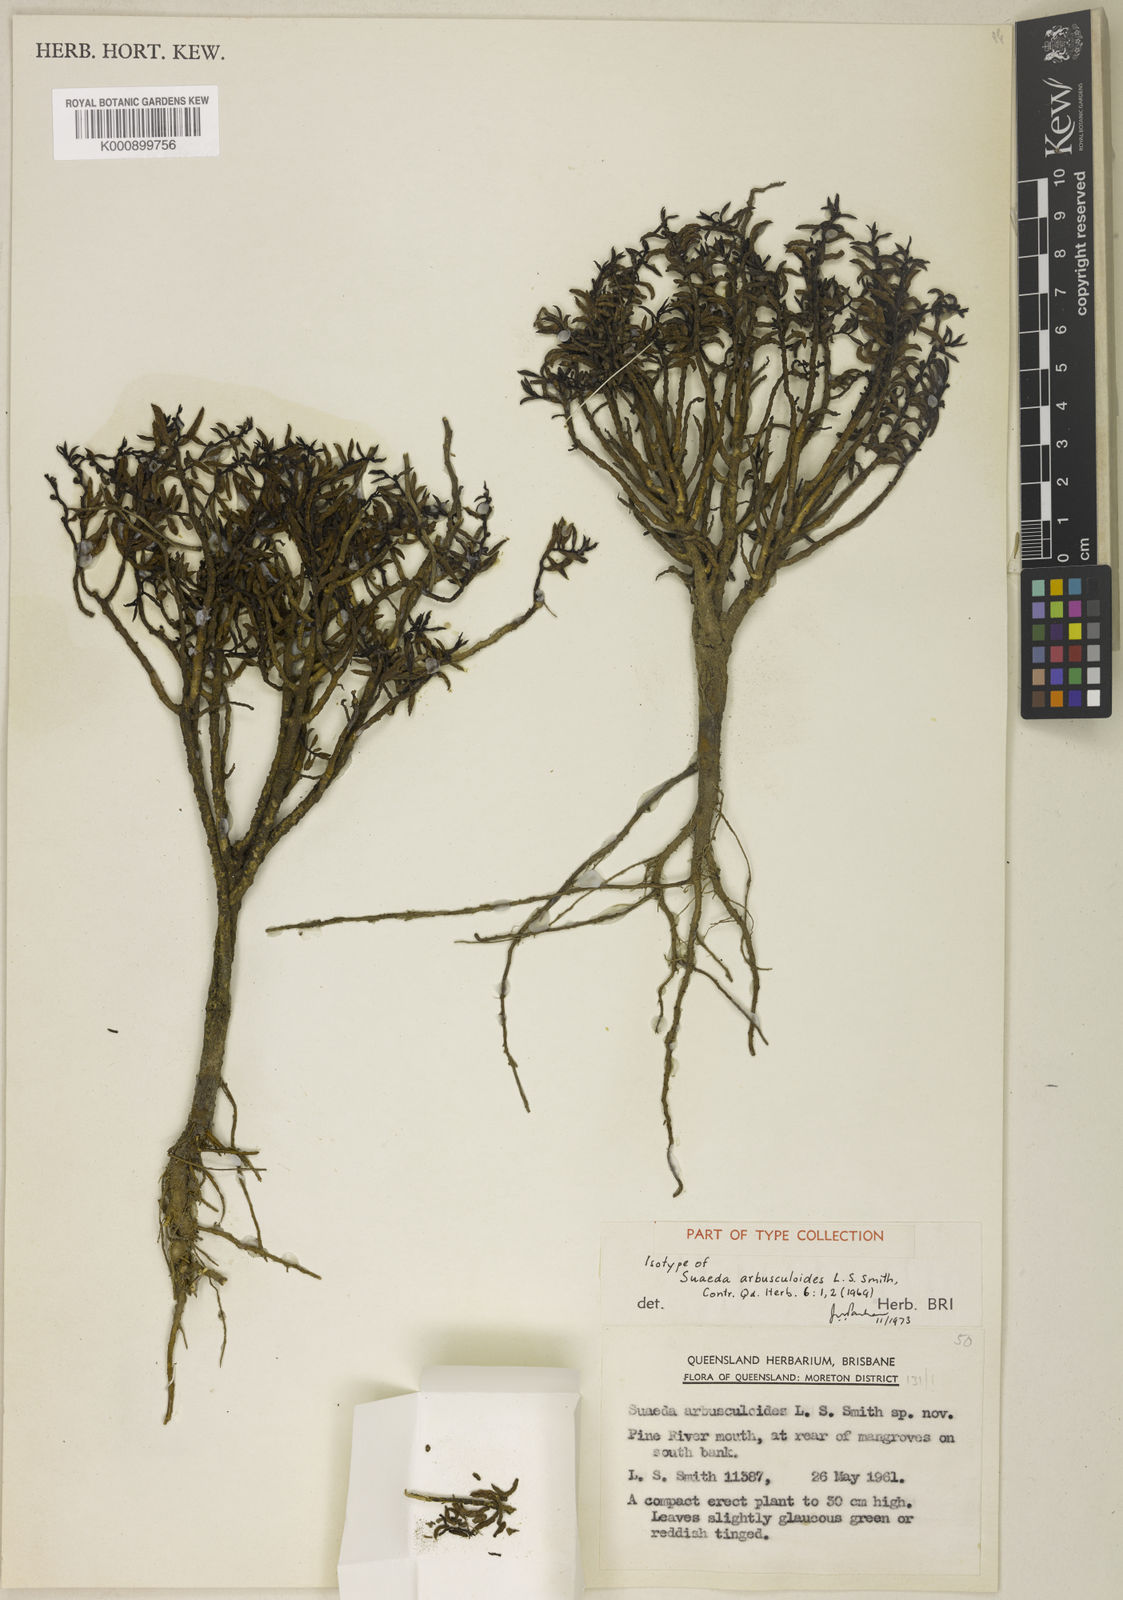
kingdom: Plantae
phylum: Tracheophyta
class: Magnoliopsida
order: Caryophyllales
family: Amaranthaceae
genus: Suaeda
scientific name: Suaeda
